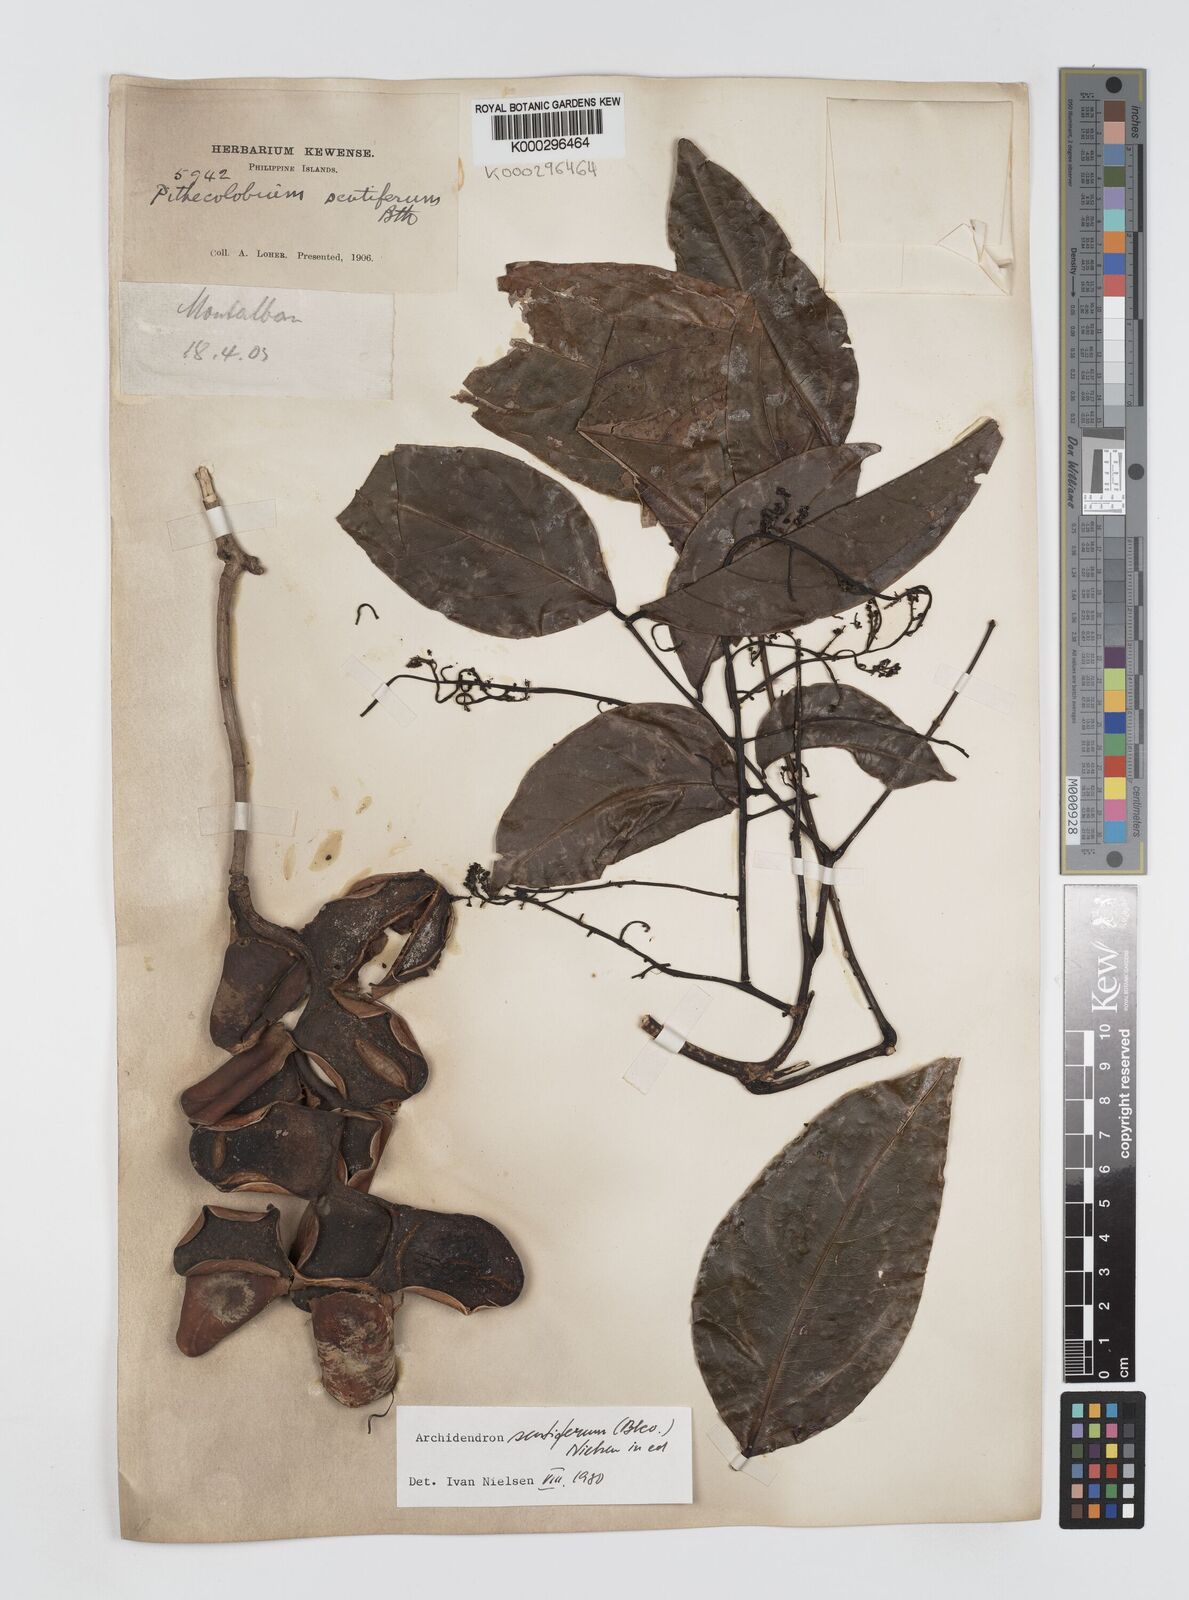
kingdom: Plantae
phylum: Tracheophyta
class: Magnoliopsida
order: Fabales
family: Fabaceae
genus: Archidendron
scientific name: Archidendron scutiferum
